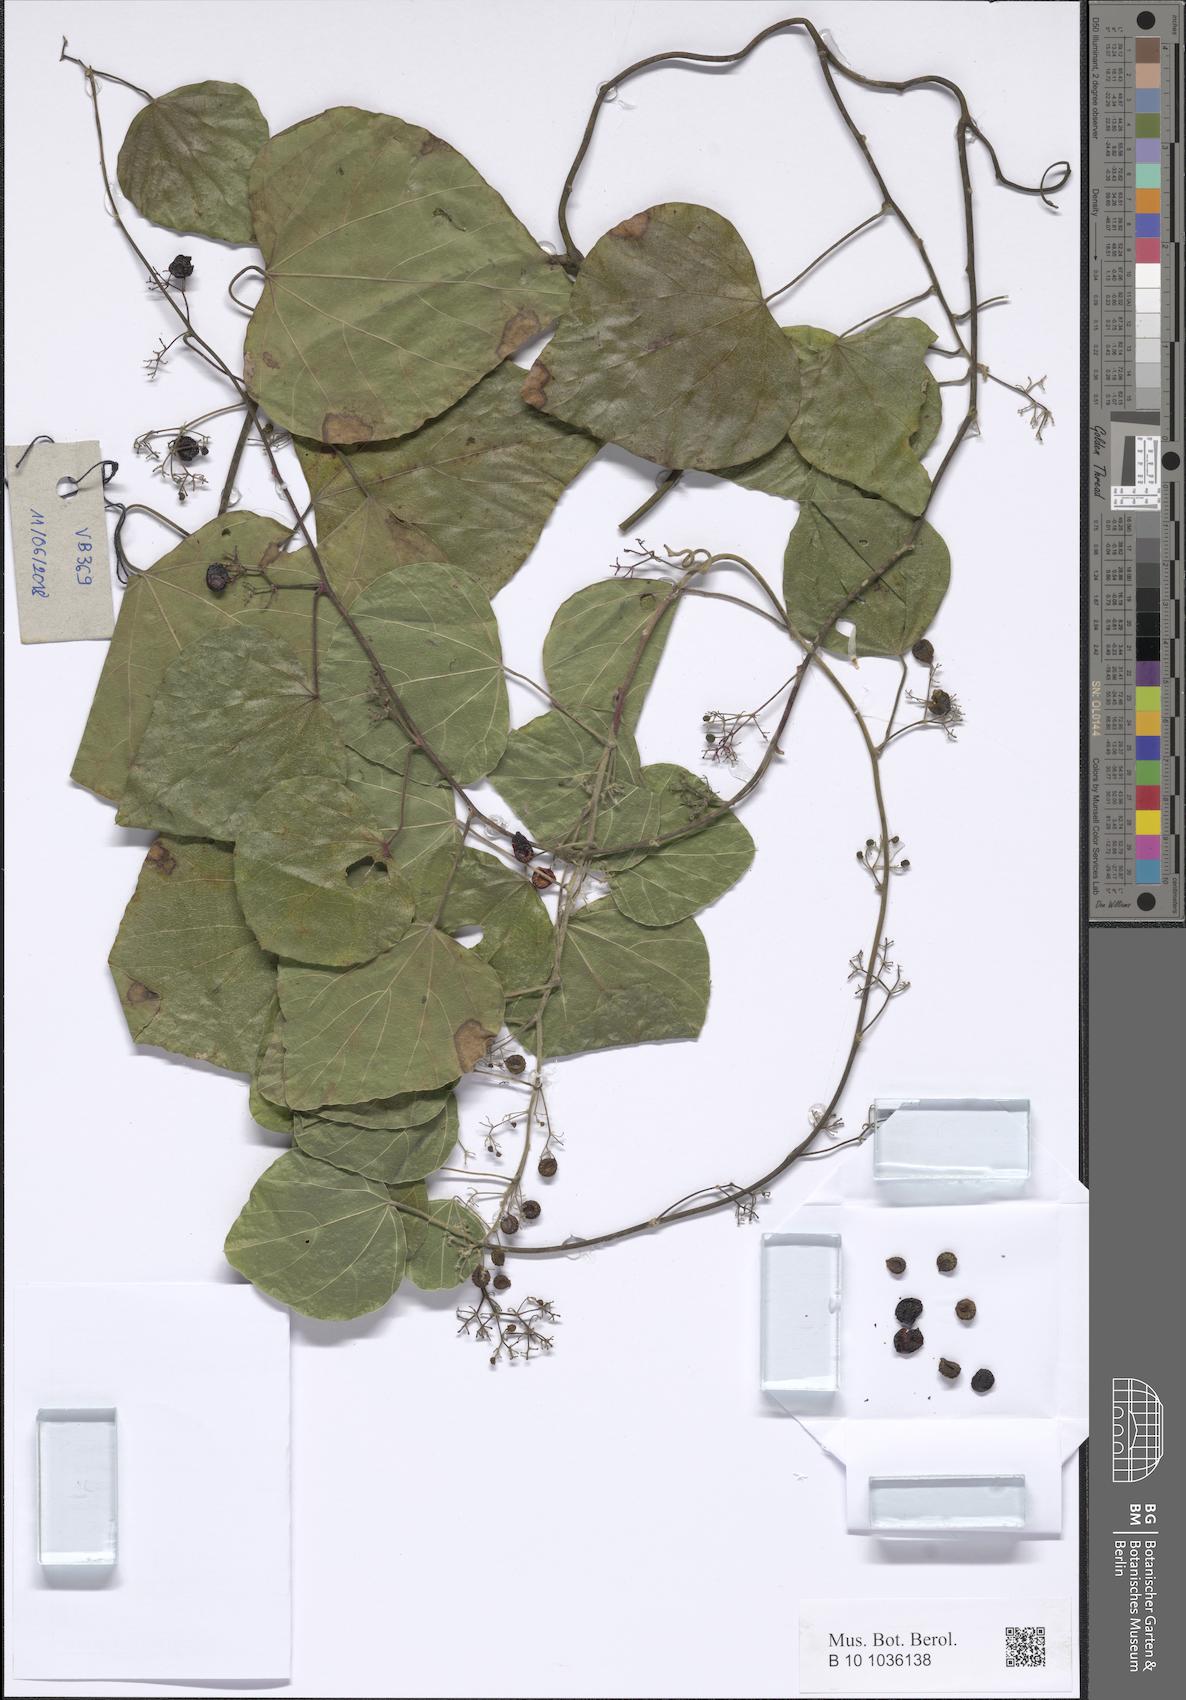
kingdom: Plantae
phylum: Tracheophyta
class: Magnoliopsida
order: Ranunculales
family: Menispermaceae
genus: Stephania
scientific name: Stephania
